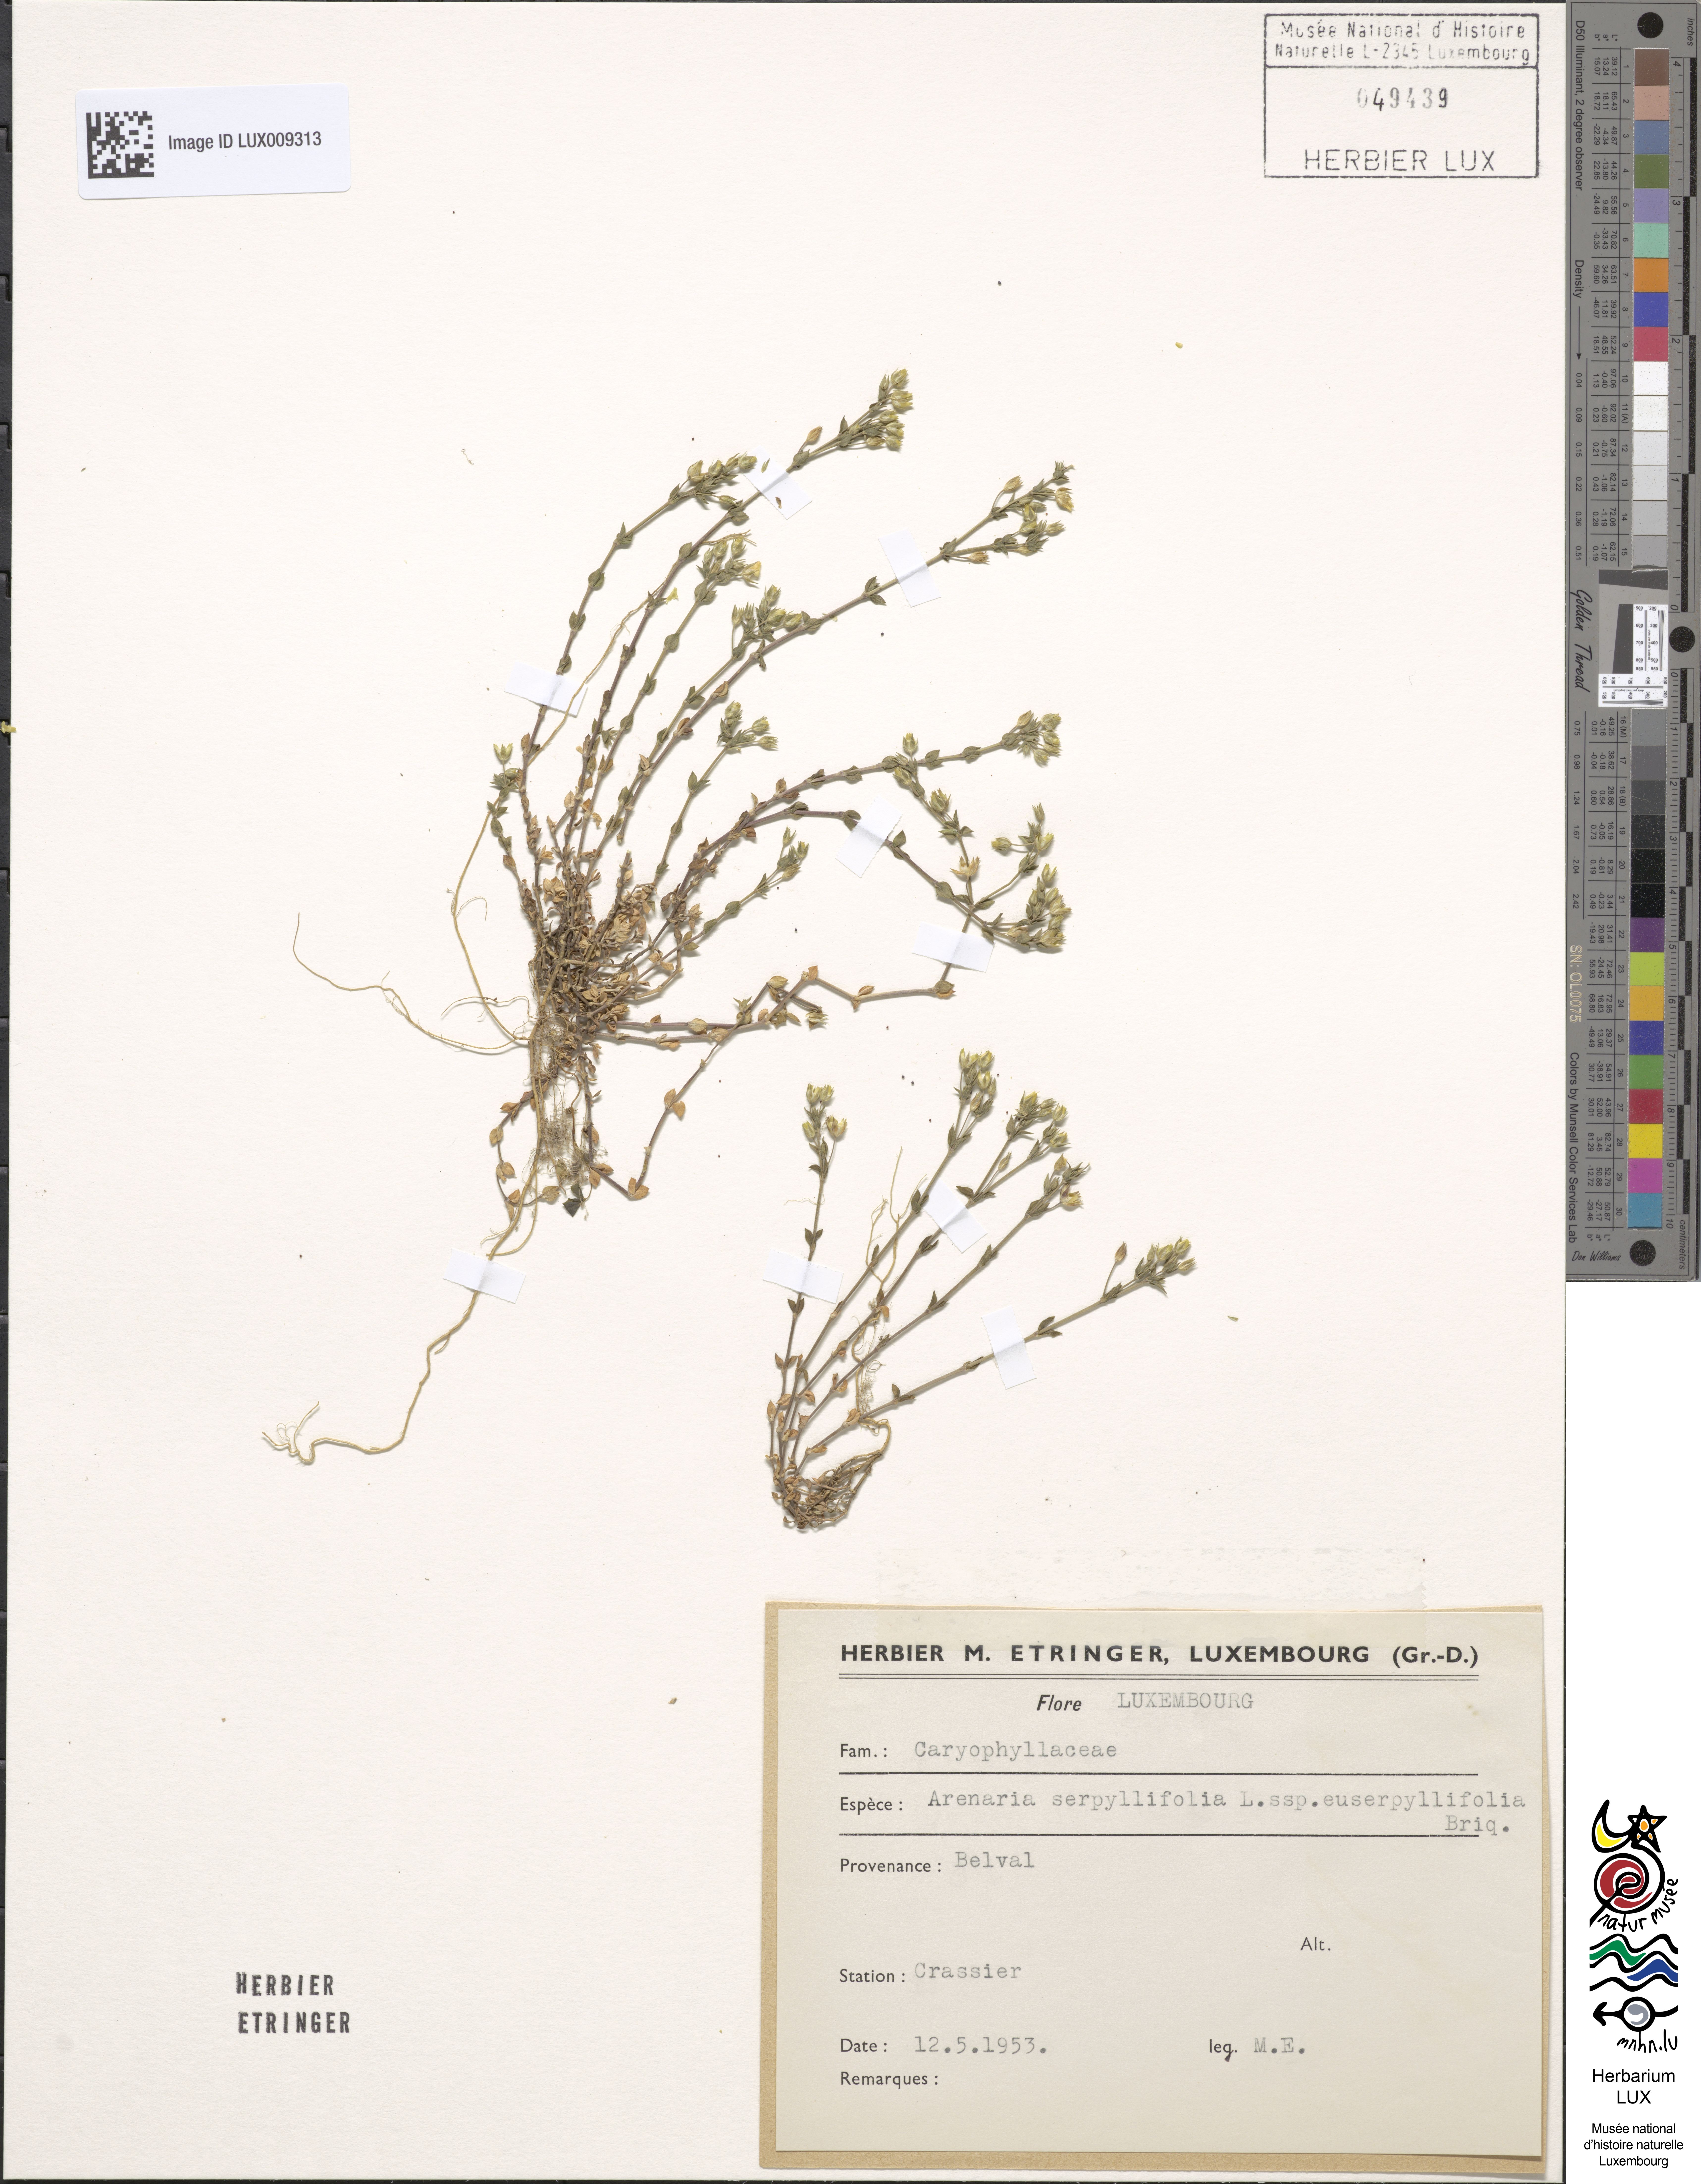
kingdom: Plantae
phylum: Tracheophyta
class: Magnoliopsida
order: Caryophyllales
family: Caryophyllaceae
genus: Arenaria
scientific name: Arenaria serpyllifolia
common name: Thyme-leaved sandwort
